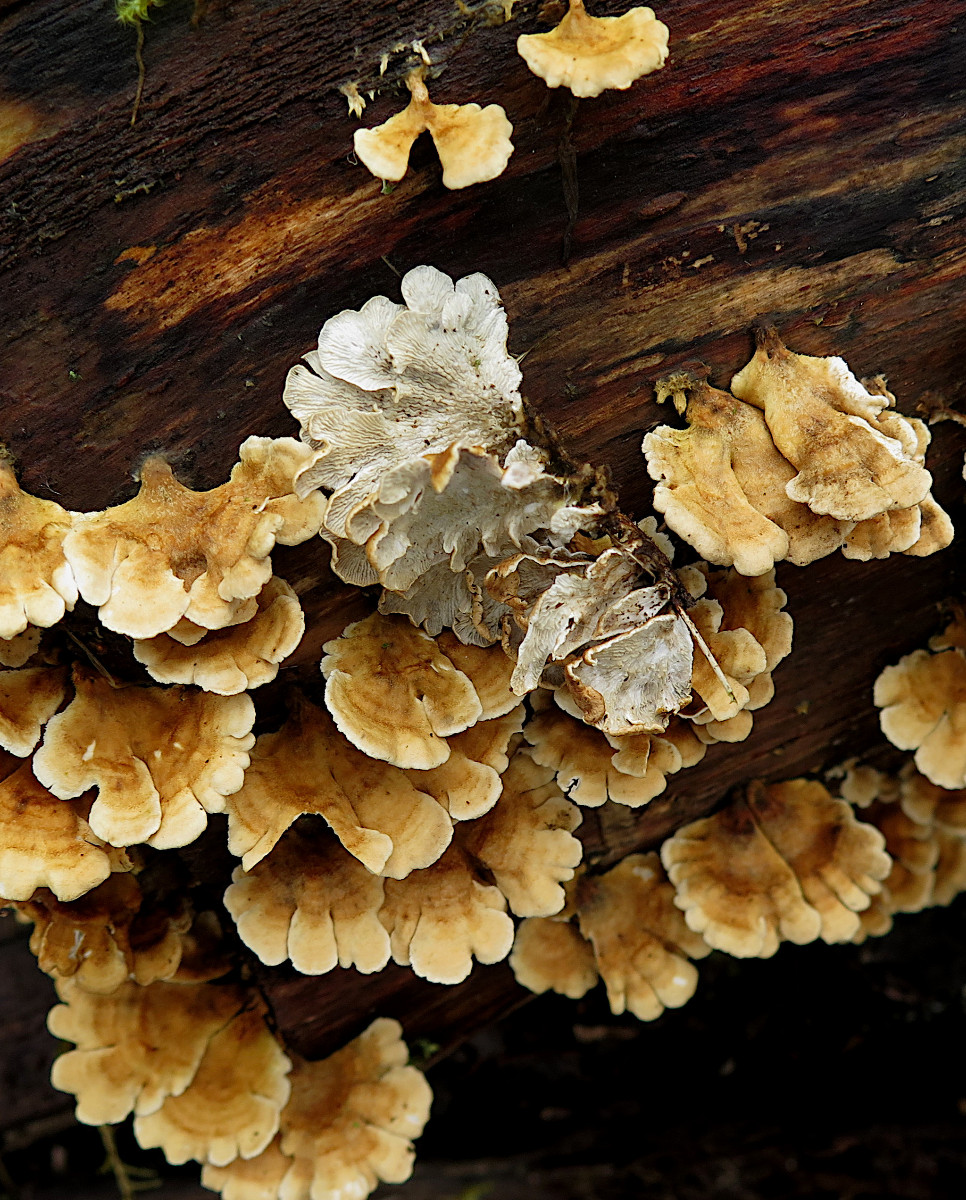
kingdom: Fungi
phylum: Basidiomycota
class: Agaricomycetes
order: Amylocorticiales
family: Amylocorticiaceae
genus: Plicaturopsis
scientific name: Plicaturopsis crispa
